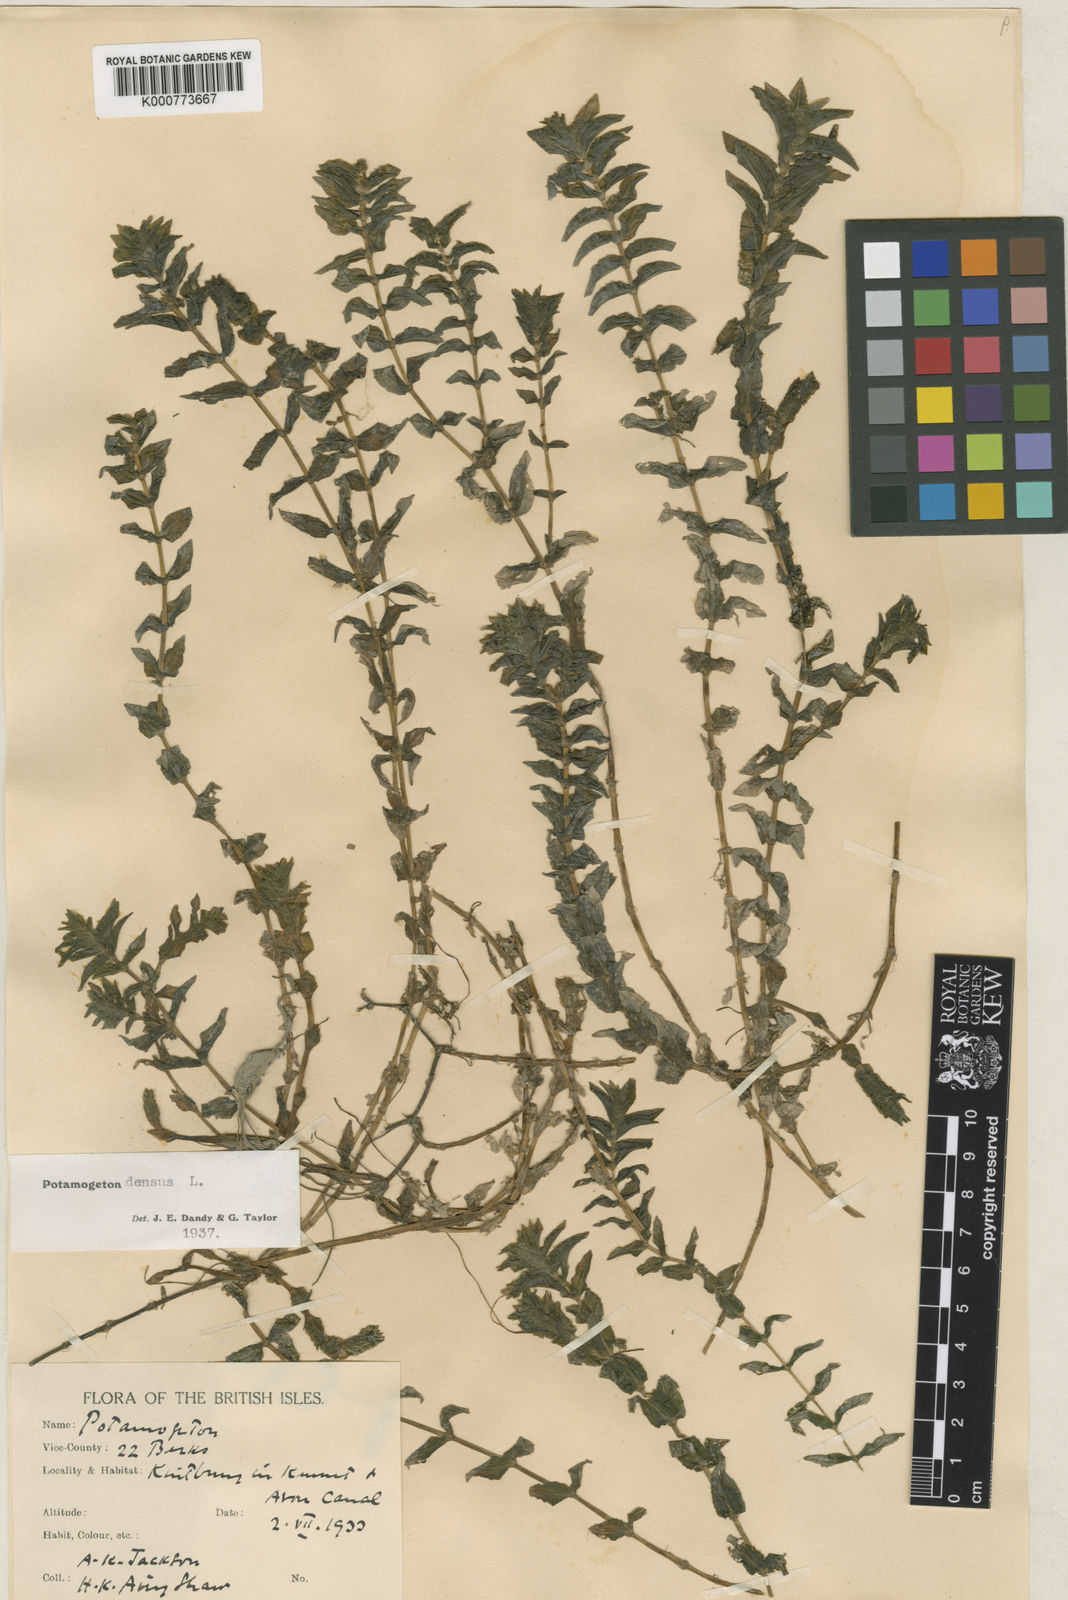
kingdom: Plantae
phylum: Tracheophyta
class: Liliopsida
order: Alismatales
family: Potamogetonaceae
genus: Groenlandia
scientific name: Groenlandia densa
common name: Opposite-leaved pondweed
